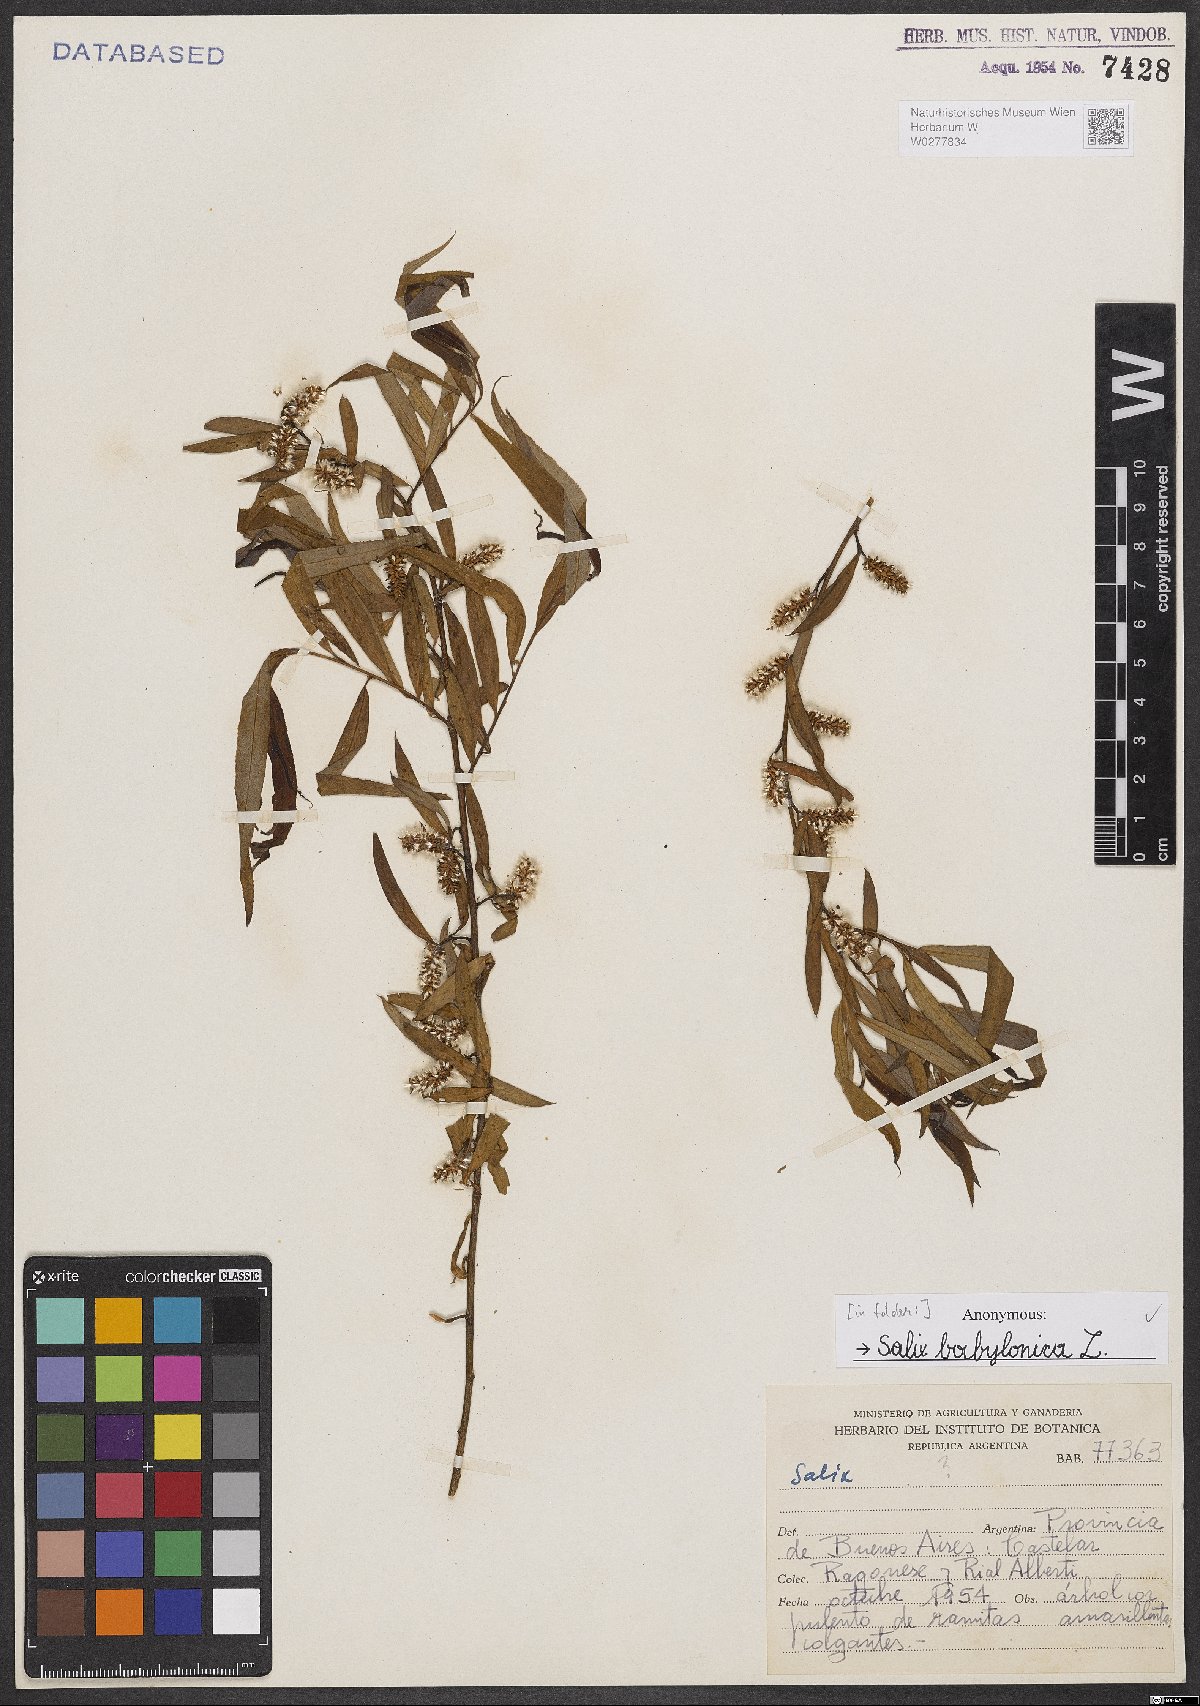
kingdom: Plantae
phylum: Tracheophyta
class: Magnoliopsida
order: Malpighiales
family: Salicaceae
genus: Salix
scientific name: Salix babylonica
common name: Weeping willow
